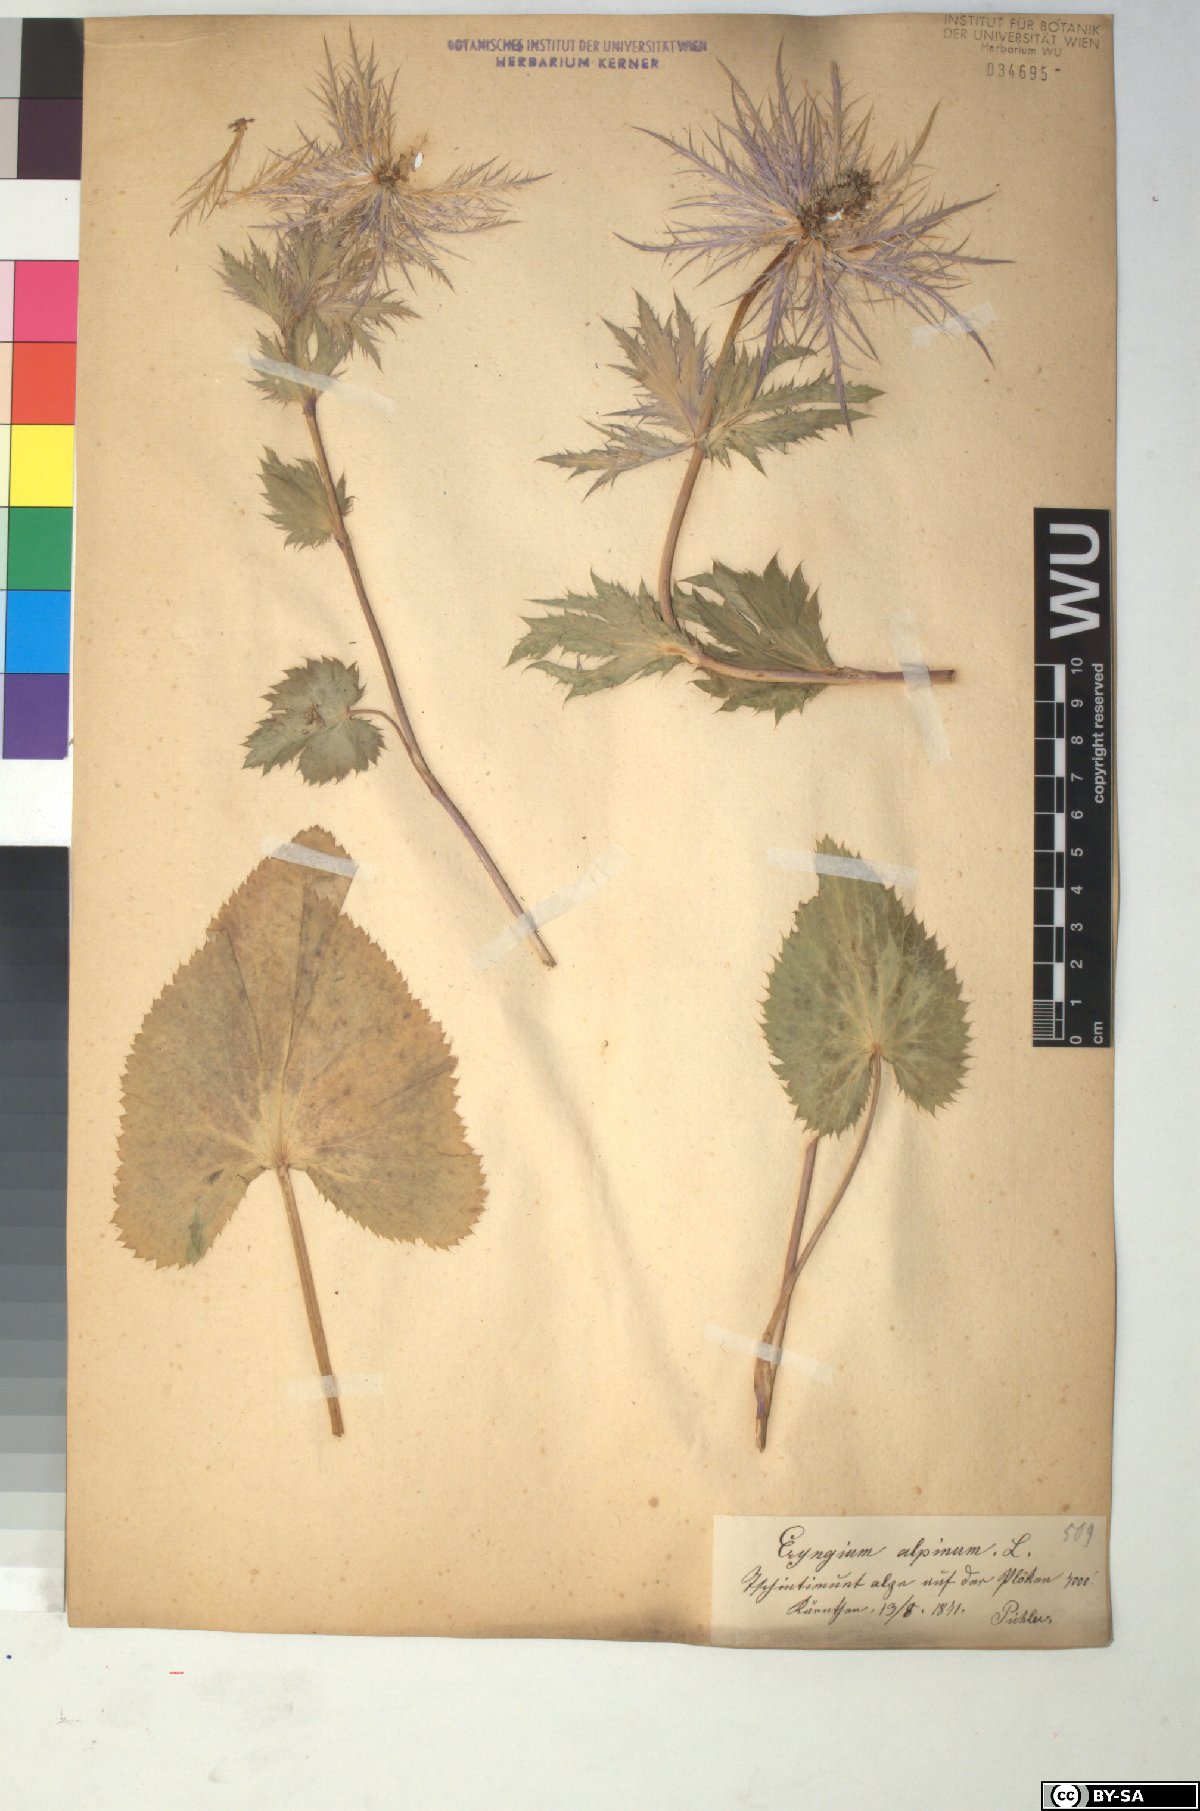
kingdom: Plantae
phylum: Tracheophyta
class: Magnoliopsida
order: Apiales
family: Apiaceae
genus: Eryngium
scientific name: Eryngium alpinum
